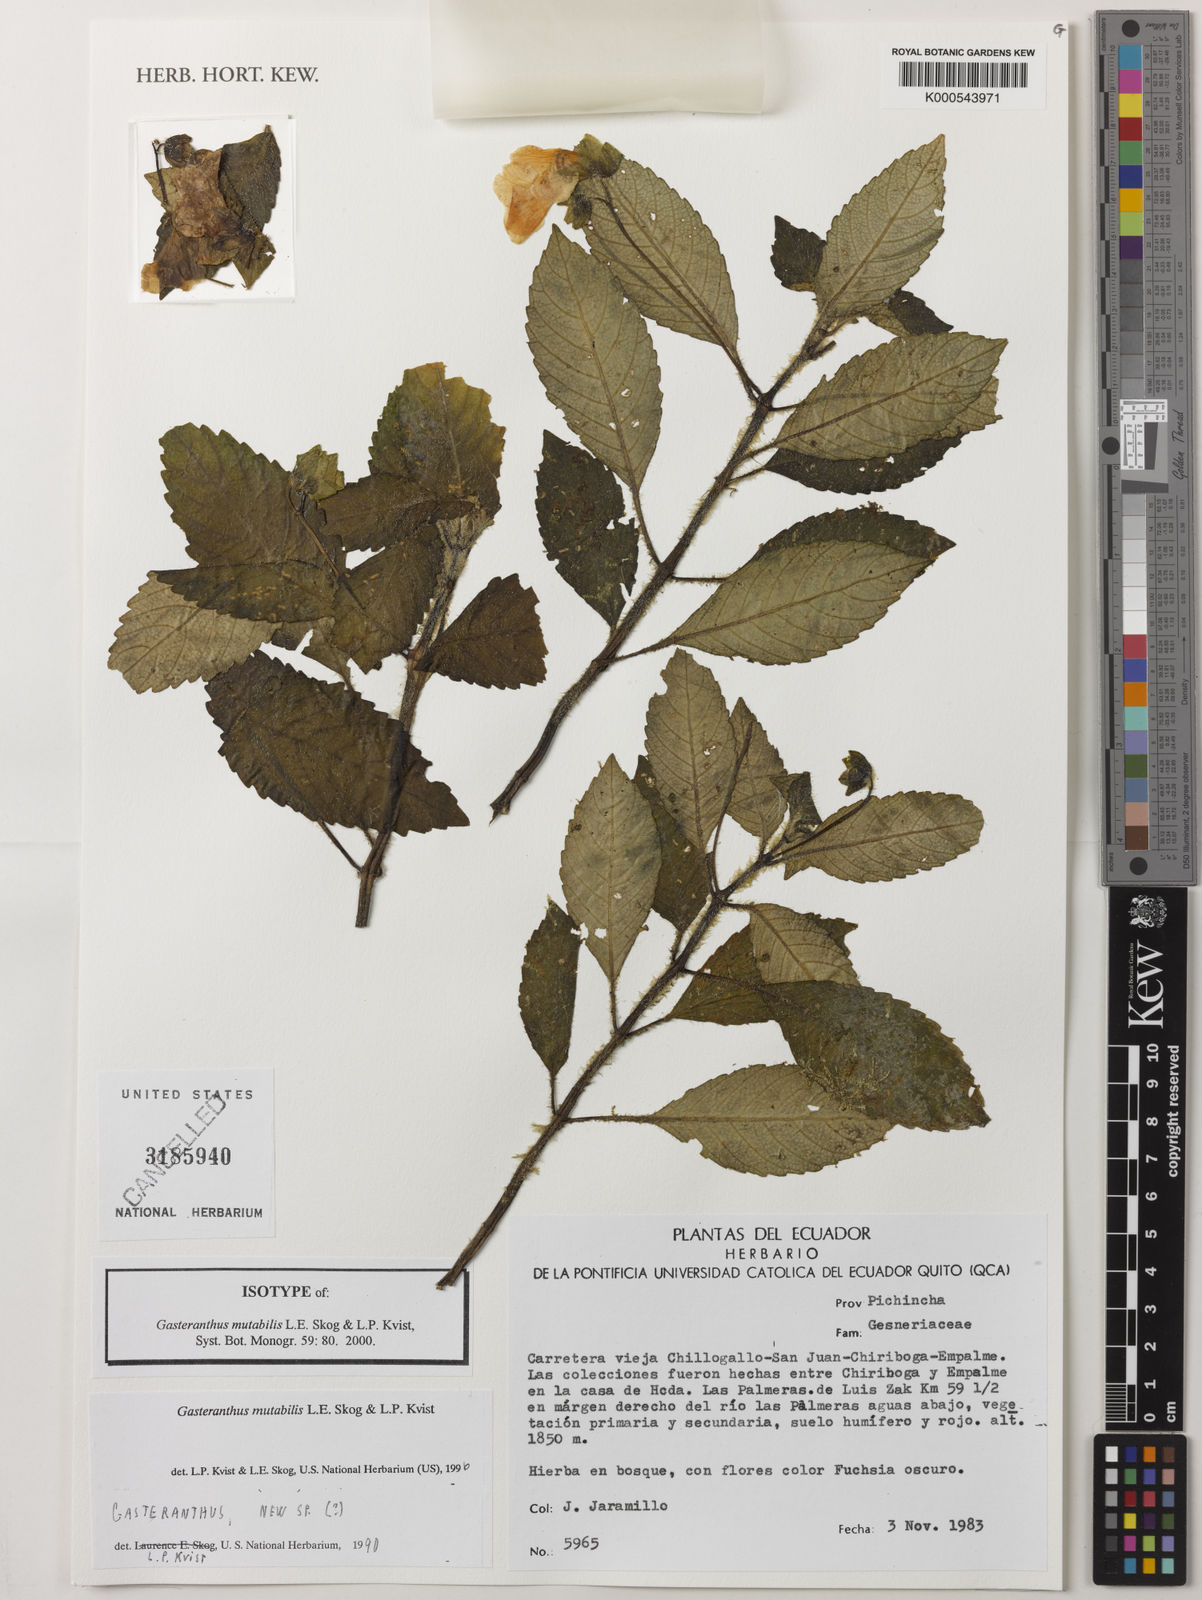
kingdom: Plantae
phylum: Tracheophyta
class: Magnoliopsida
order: Lamiales
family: Gesneriaceae
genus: Gasteranthus
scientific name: Gasteranthus mutabilis
